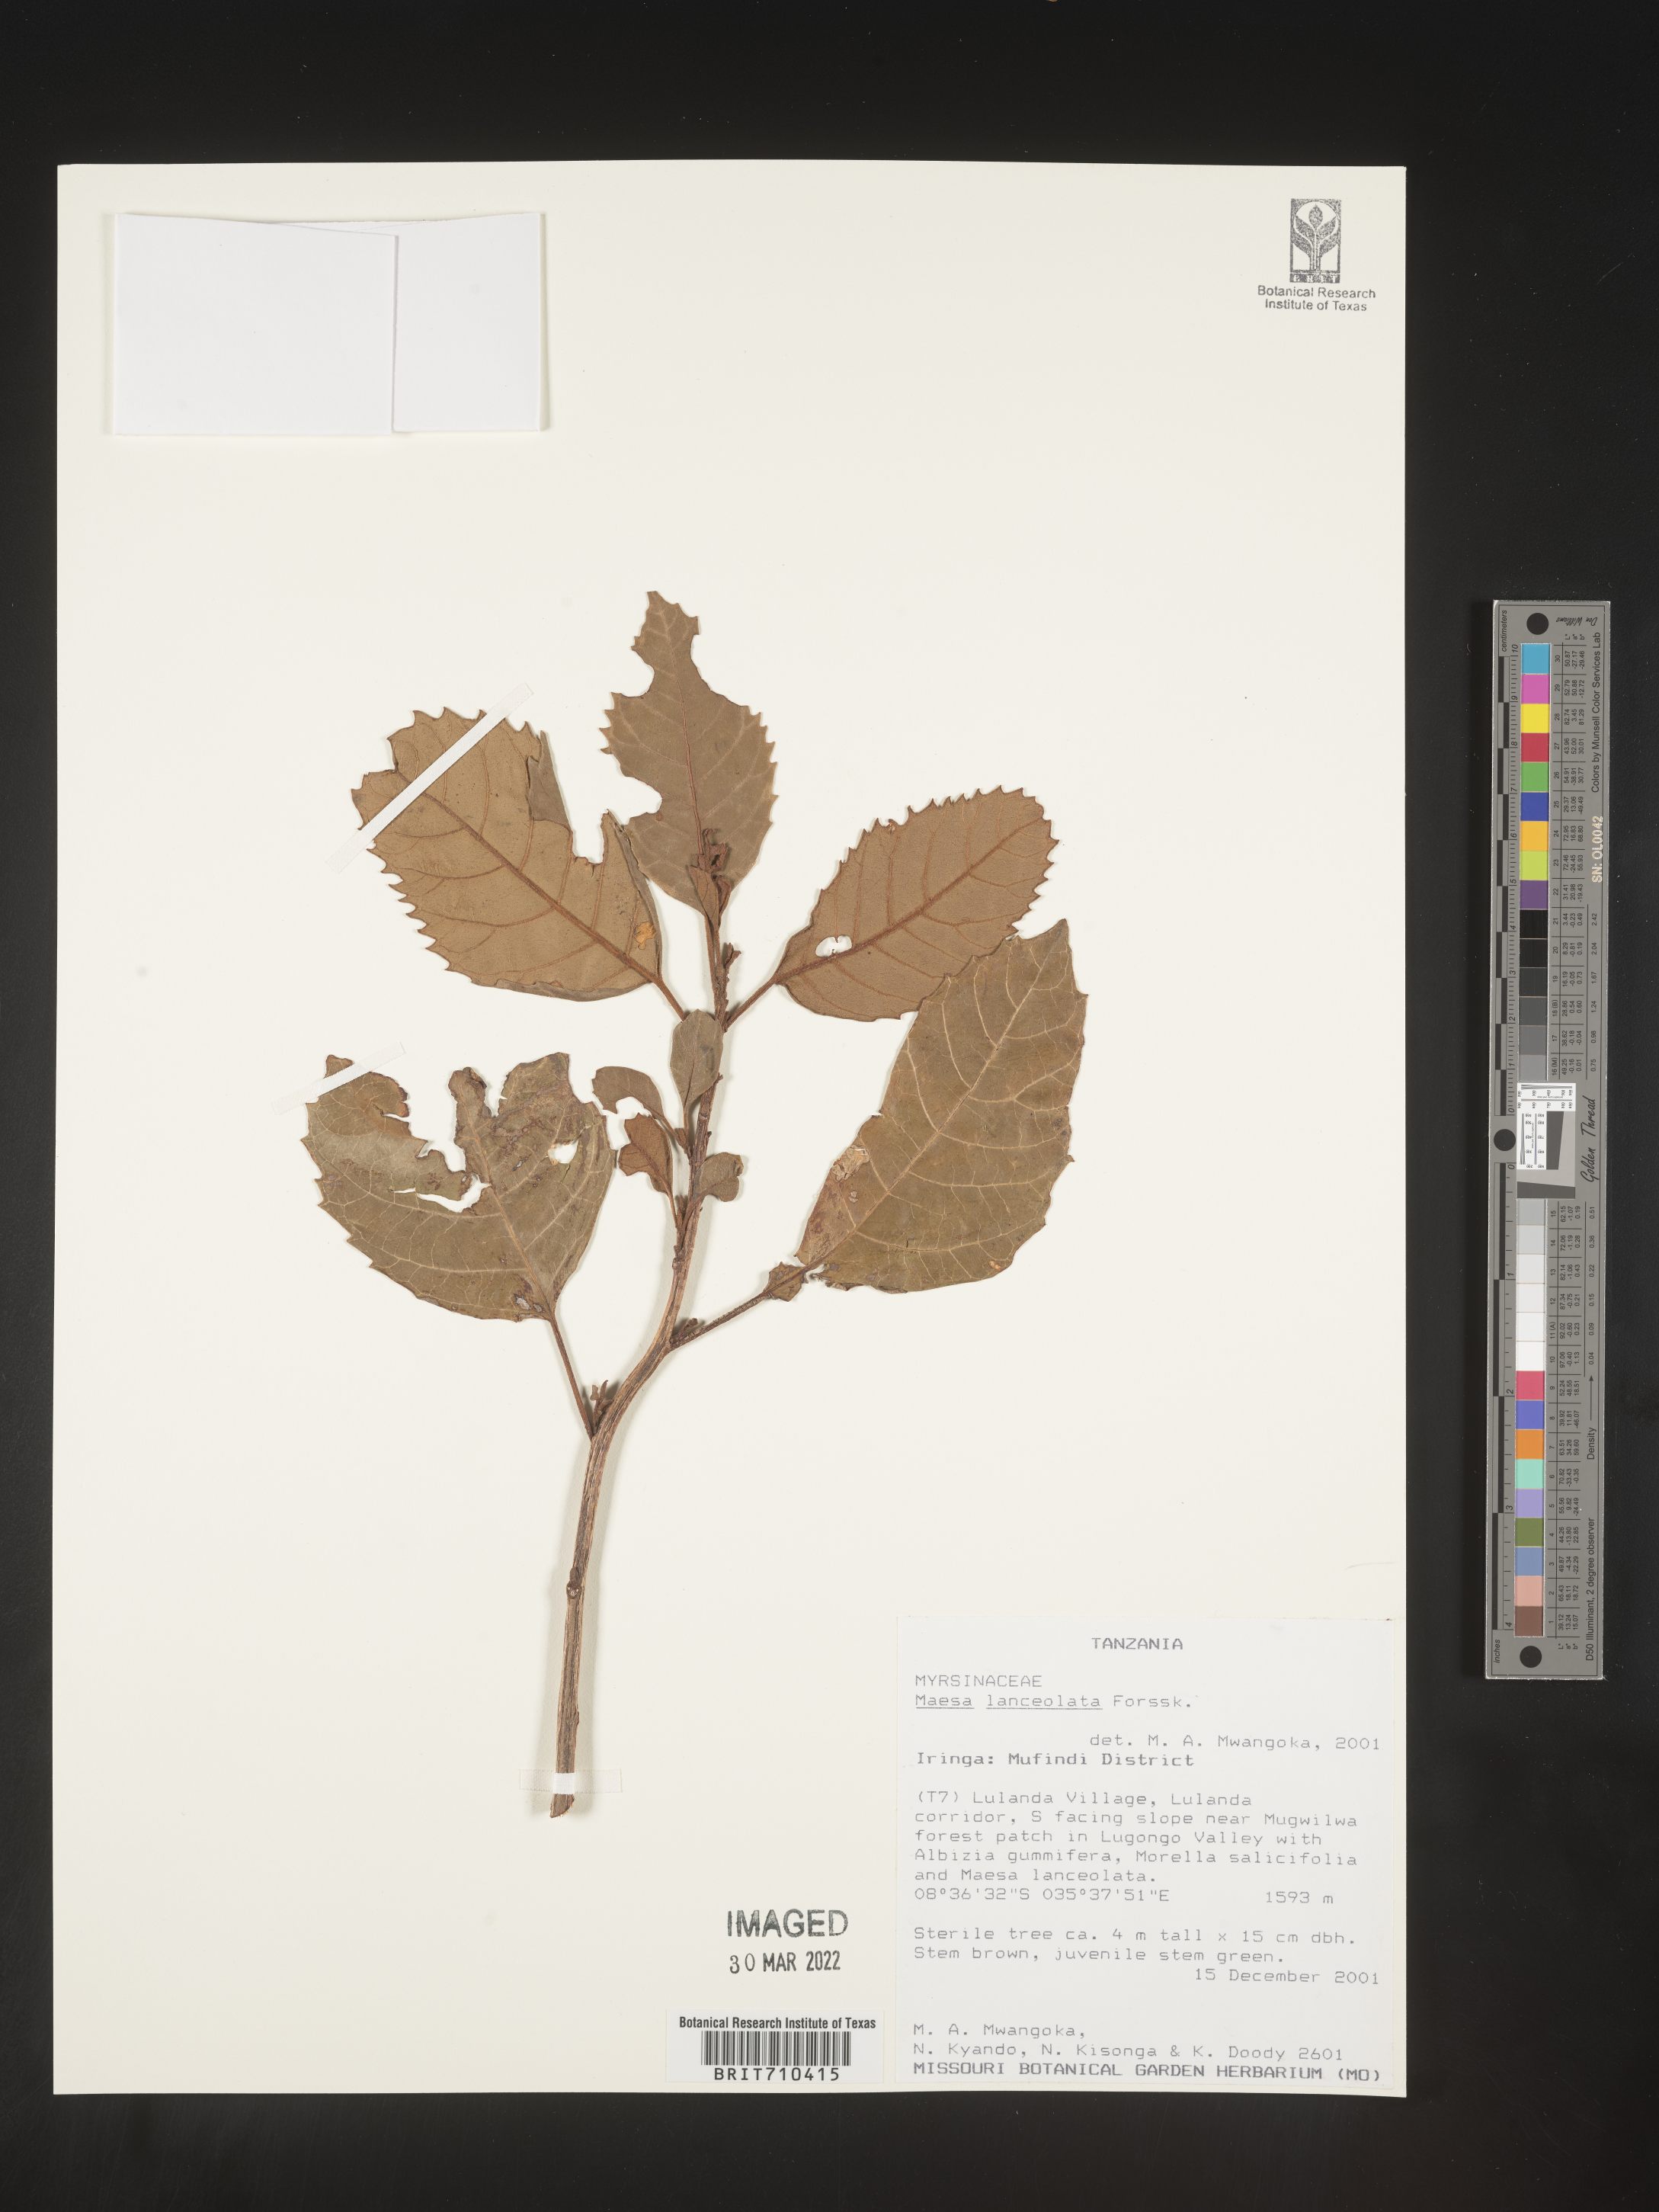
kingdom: Plantae
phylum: Tracheophyta
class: Magnoliopsida
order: Ericales
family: Primulaceae
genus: Maesa
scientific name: Maesa
